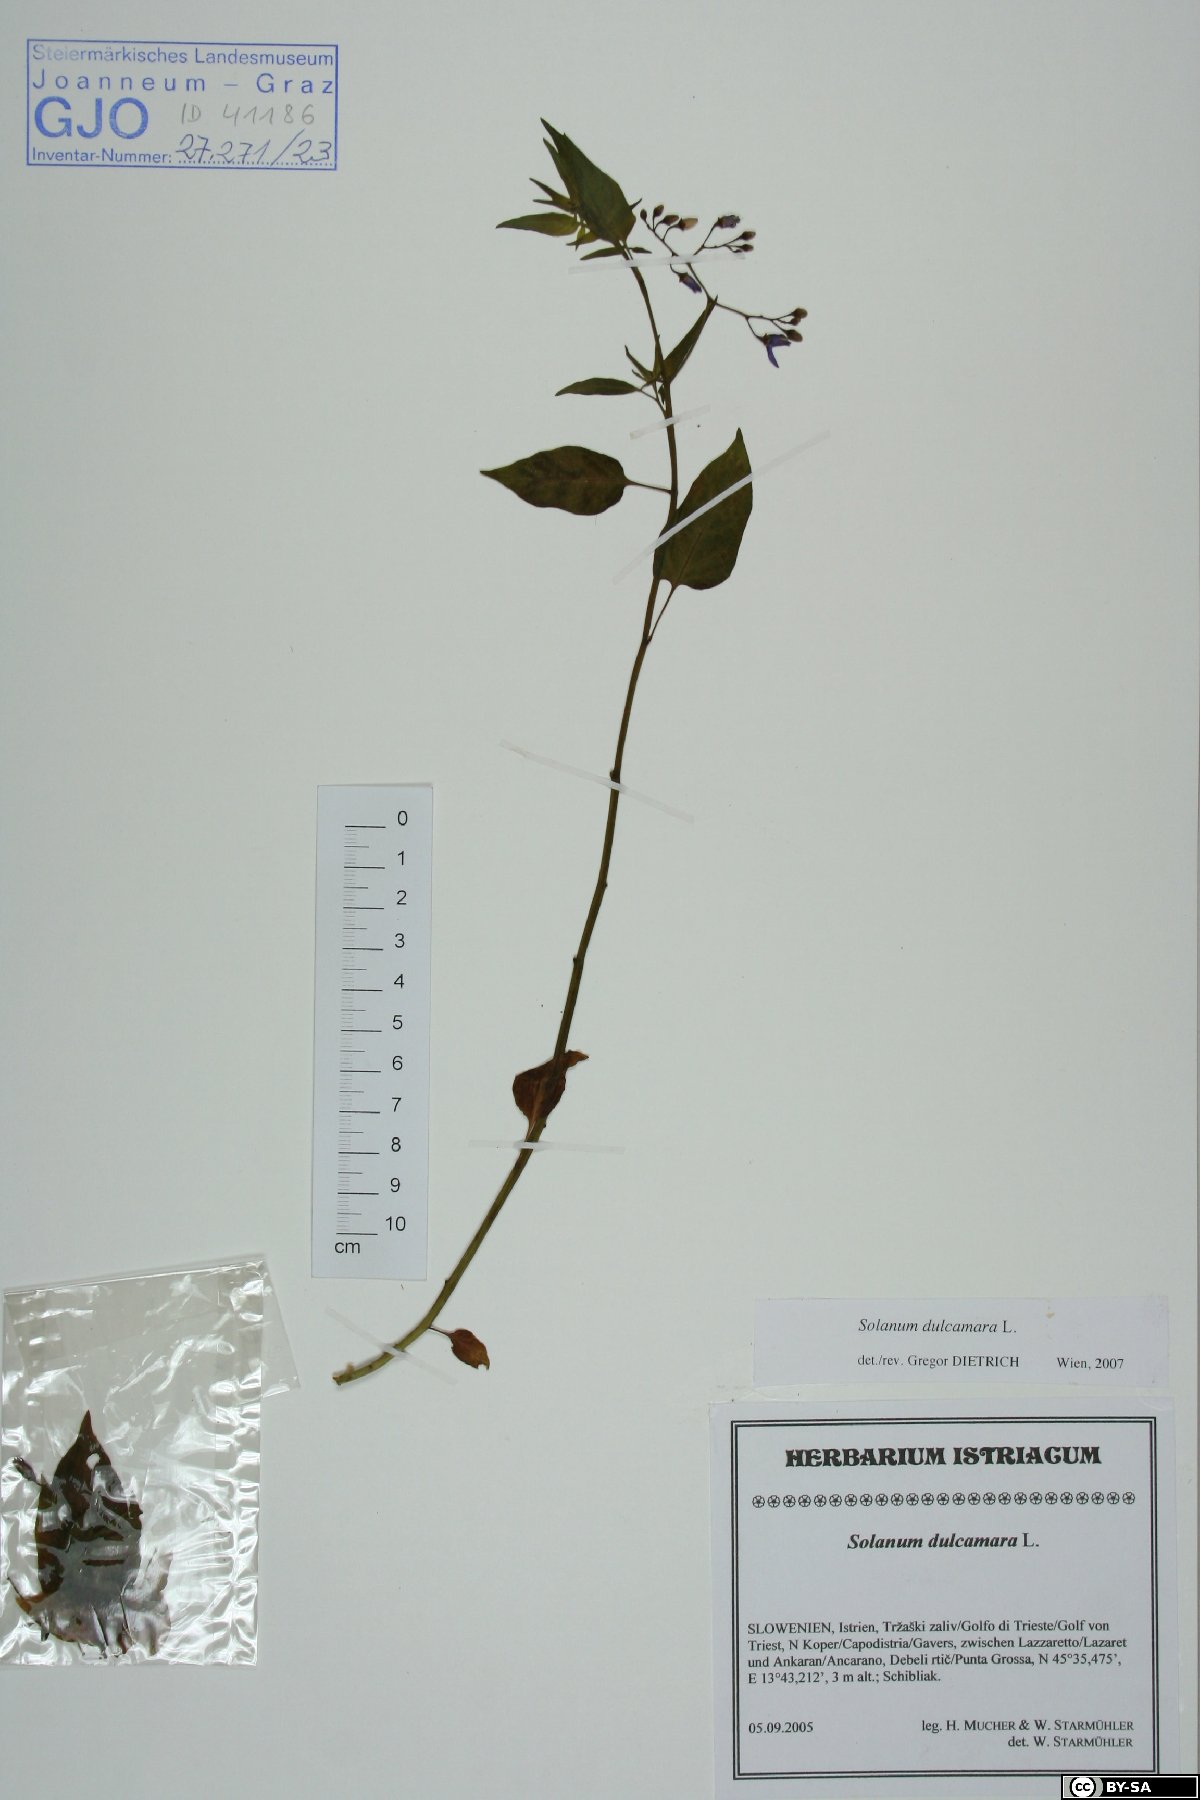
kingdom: Plantae
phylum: Tracheophyta
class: Magnoliopsida
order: Solanales
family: Solanaceae
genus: Solanum
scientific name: Solanum dulcamara
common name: Climbing nightshade
